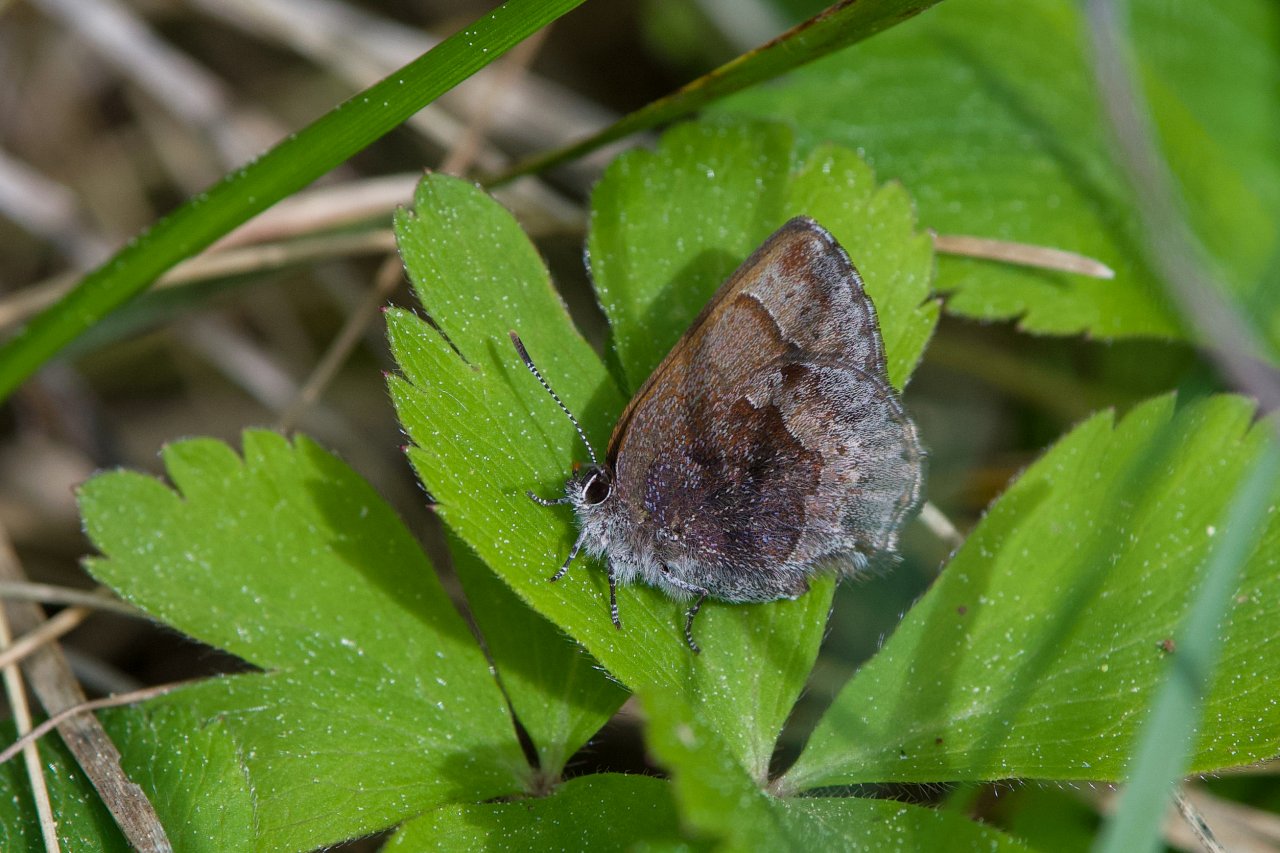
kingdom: Animalia
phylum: Arthropoda
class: Insecta
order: Lepidoptera
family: Lycaenidae
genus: Callophrys
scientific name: Callophrys polios
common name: Hoary Elfin
